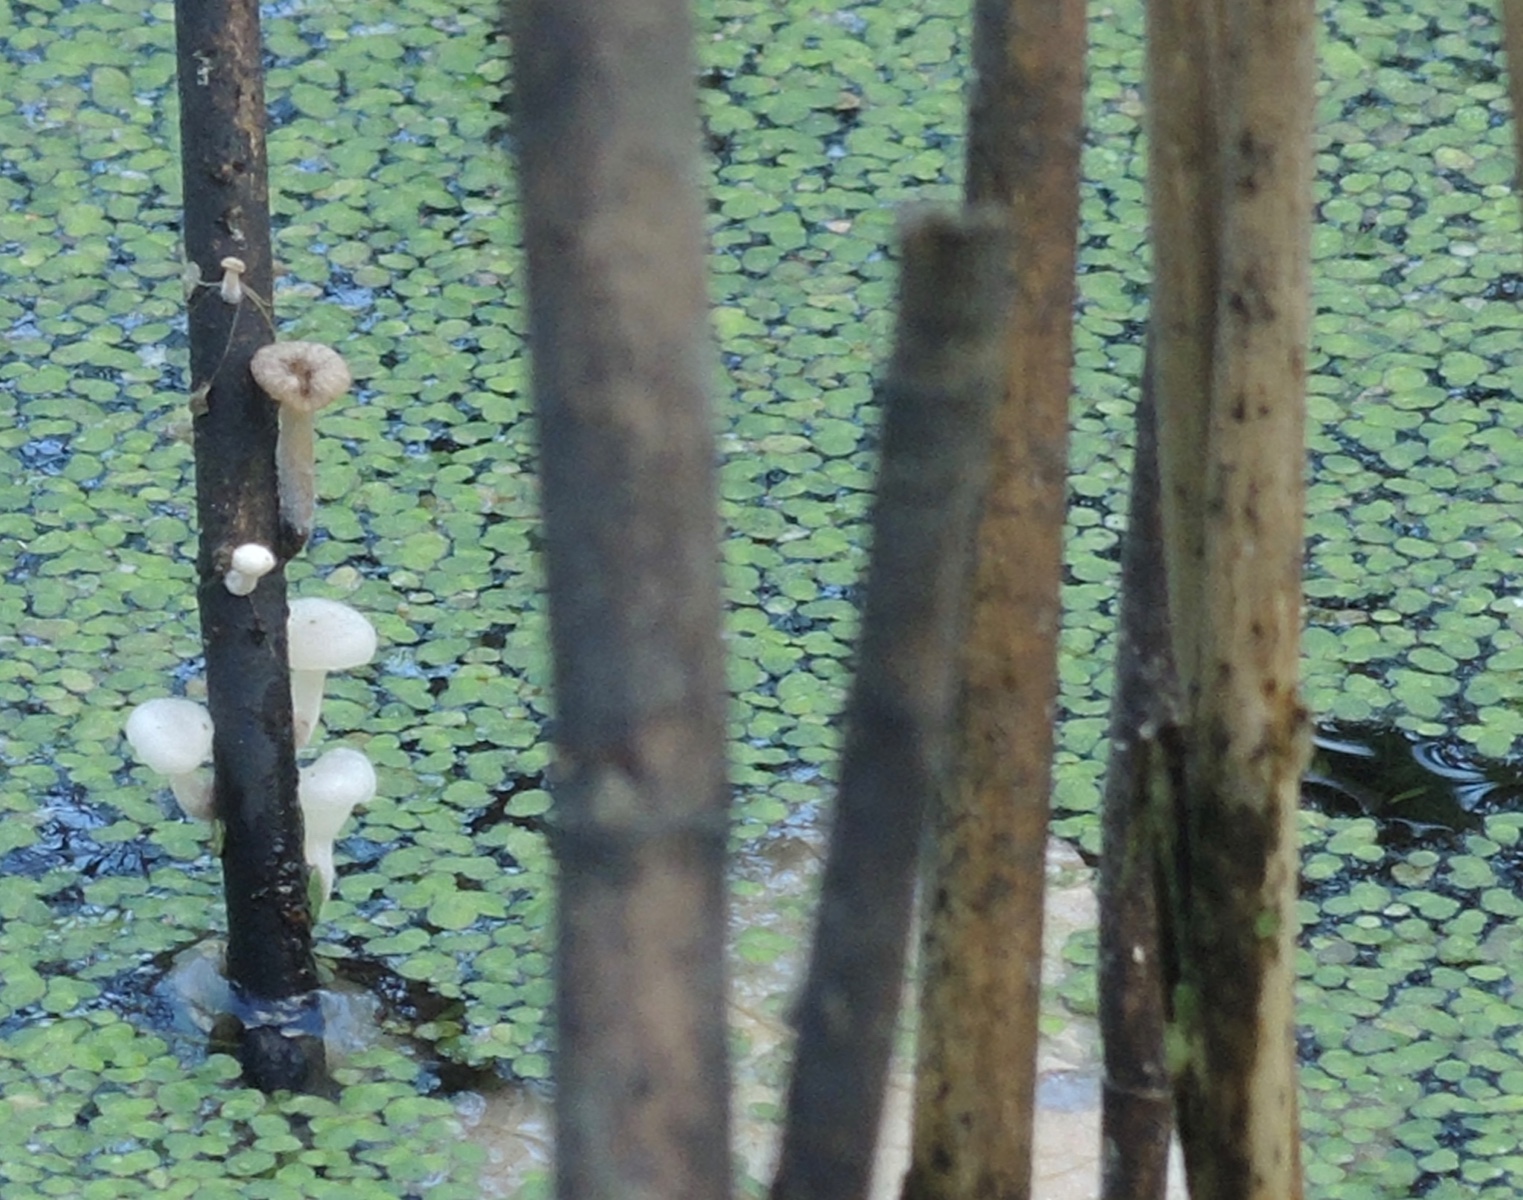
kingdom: Fungi
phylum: Basidiomycota
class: Agaricomycetes
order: Agaricales
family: Mycenaceae
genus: Mycena
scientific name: Mycena belliae
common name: tagrørs-huesvamp
